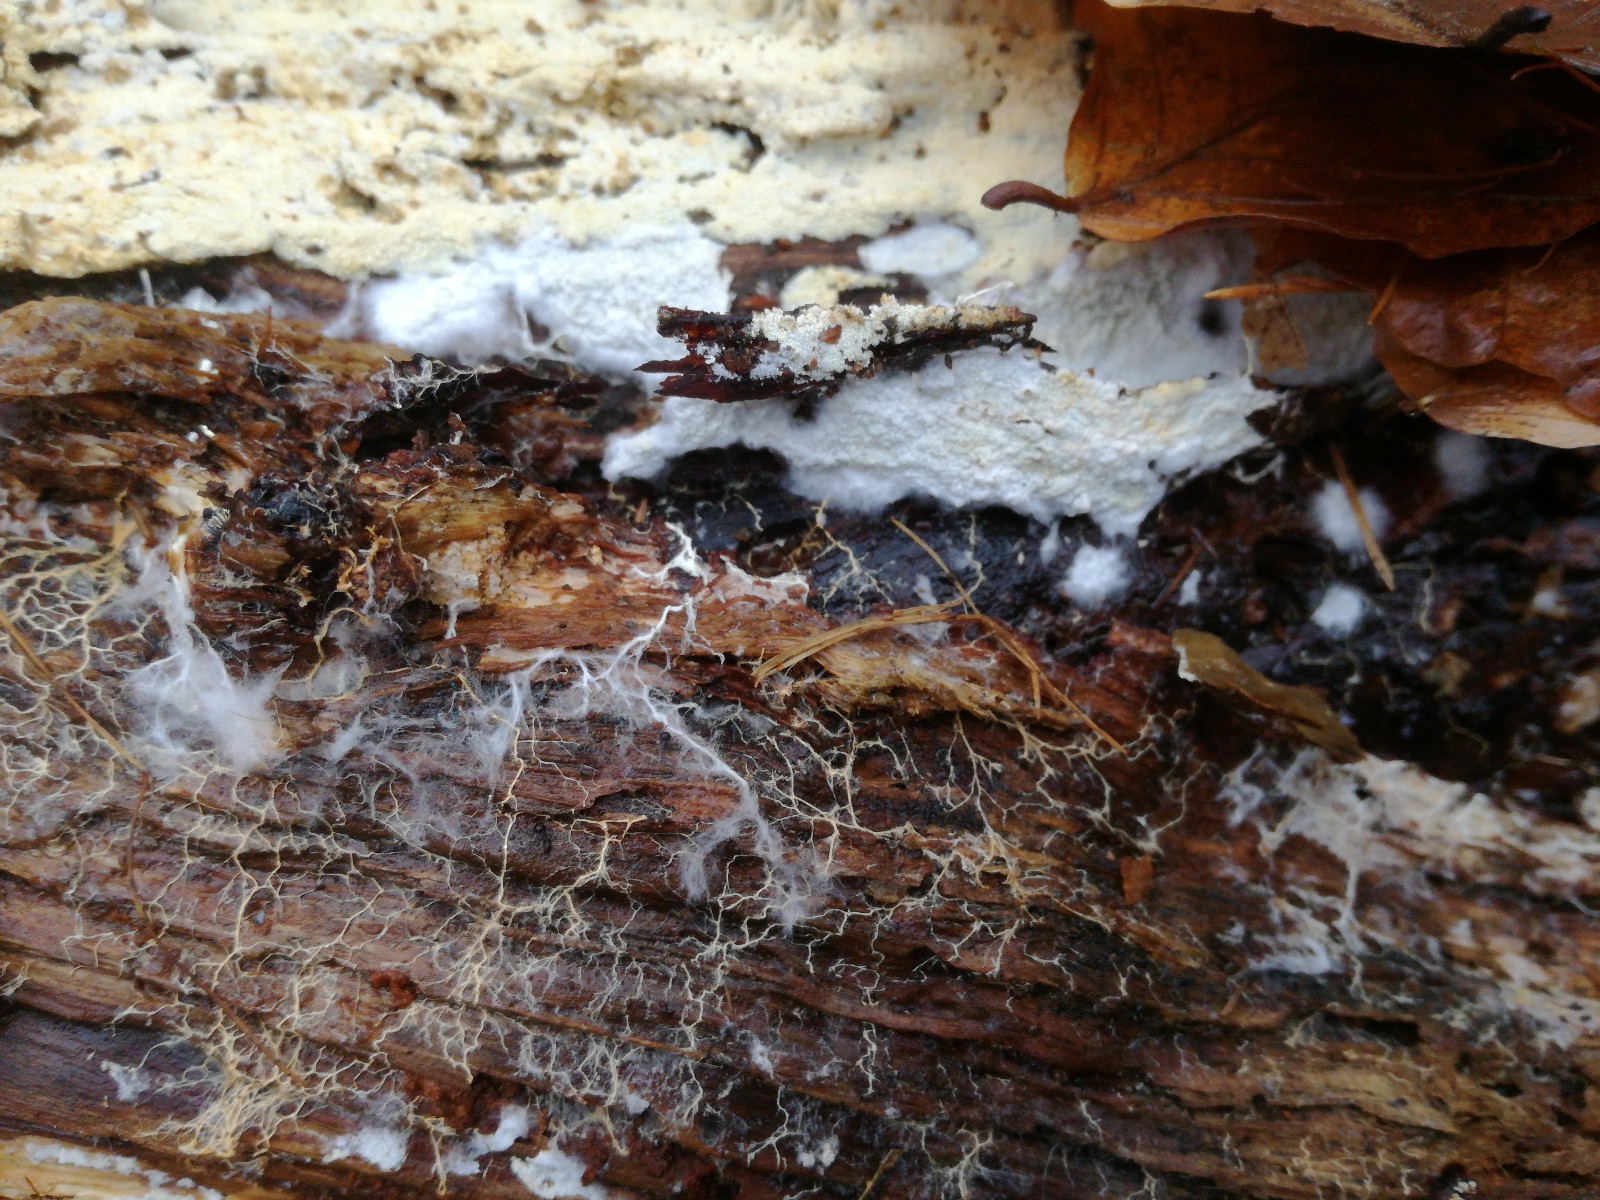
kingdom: Fungi
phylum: Basidiomycota
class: Agaricomycetes
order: Atheliales
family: Atheliaceae
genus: Leptosporomyces
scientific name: Leptosporomyces fuscostratus
